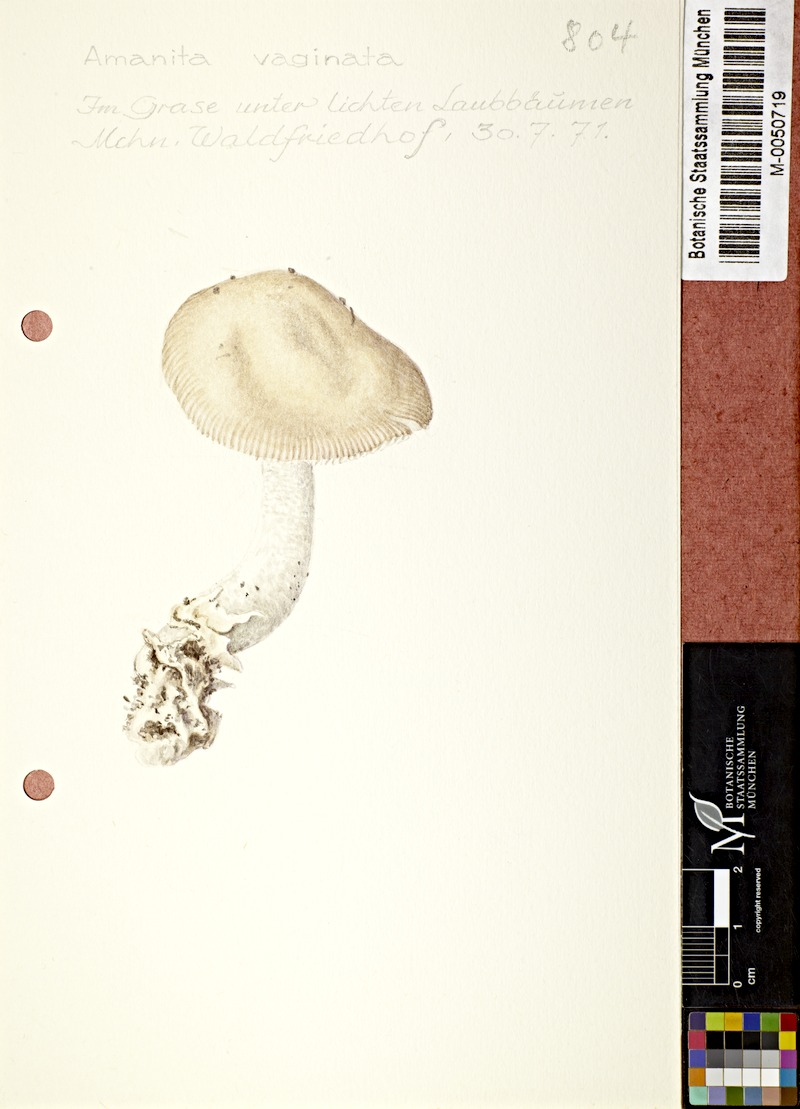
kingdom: Fungi
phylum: Basidiomycota
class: Agaricomycetes
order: Agaricales
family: Amanitaceae
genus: Amanita
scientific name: Amanita vaginata
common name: Grisette
